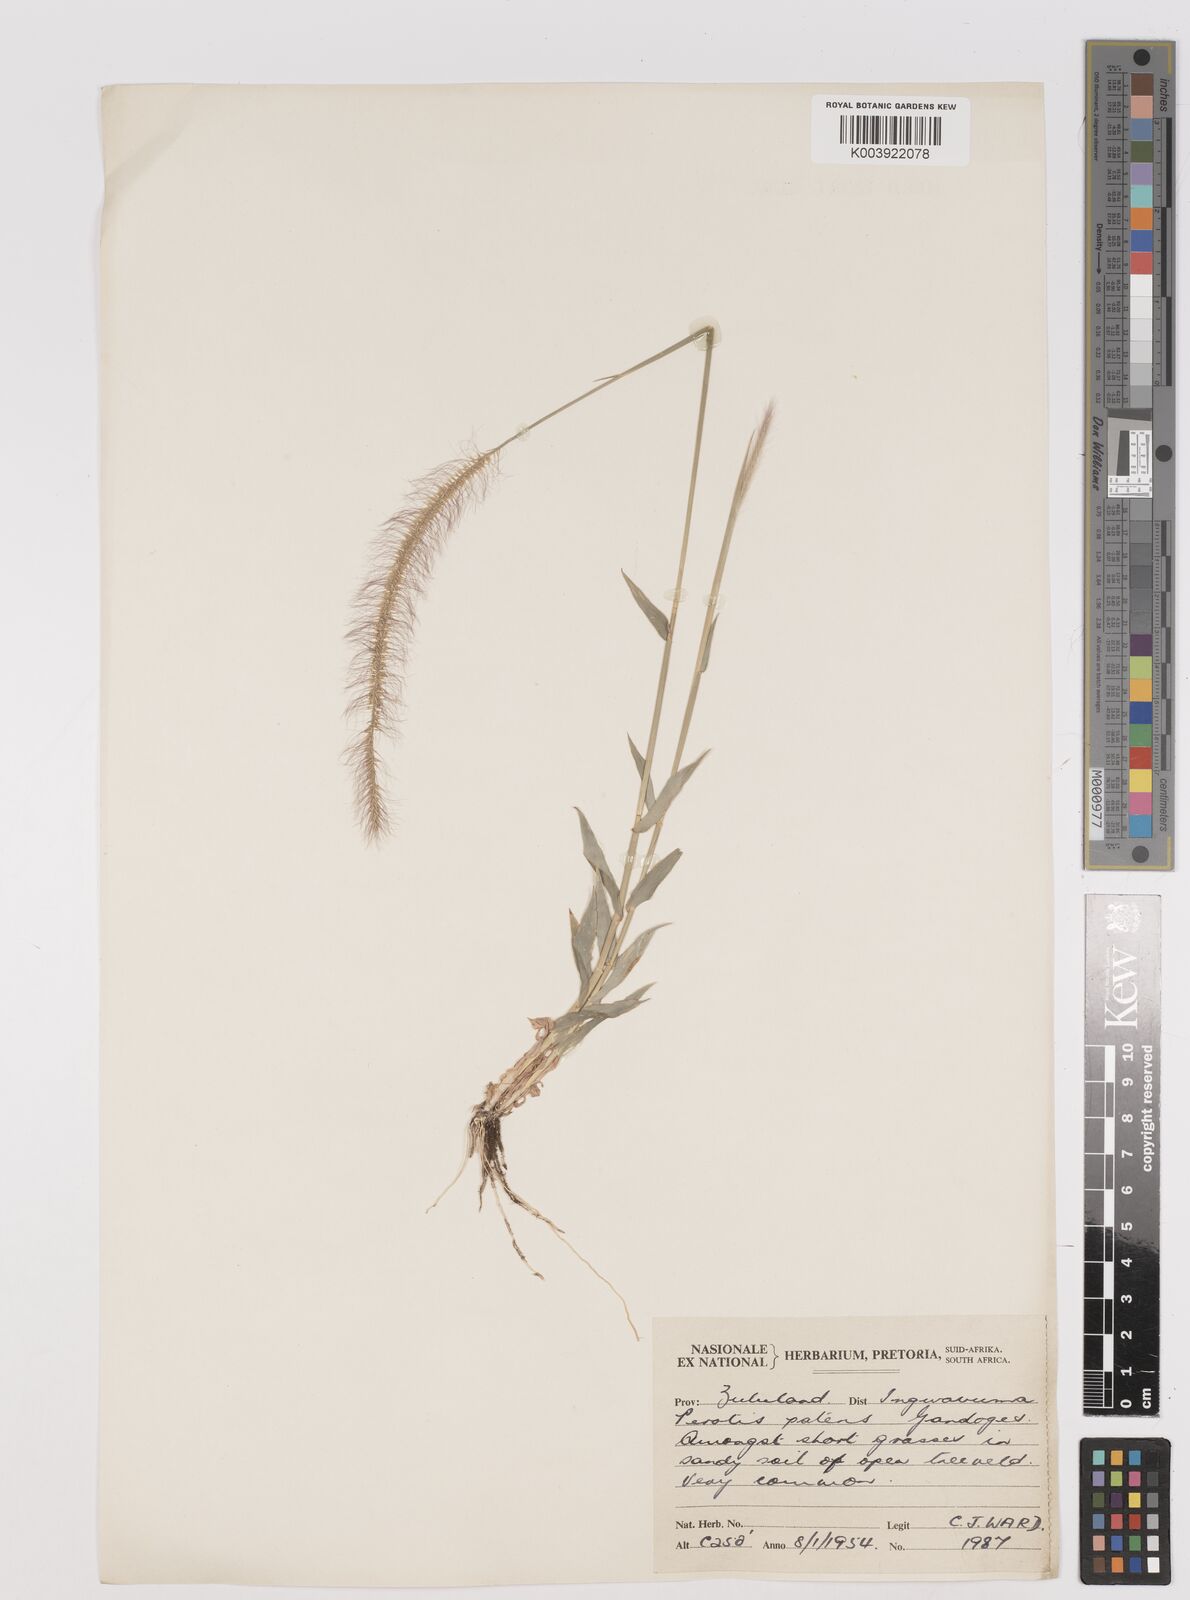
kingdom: Plantae
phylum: Tracheophyta
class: Liliopsida
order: Poales
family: Poaceae
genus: Perotis
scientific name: Perotis patens
